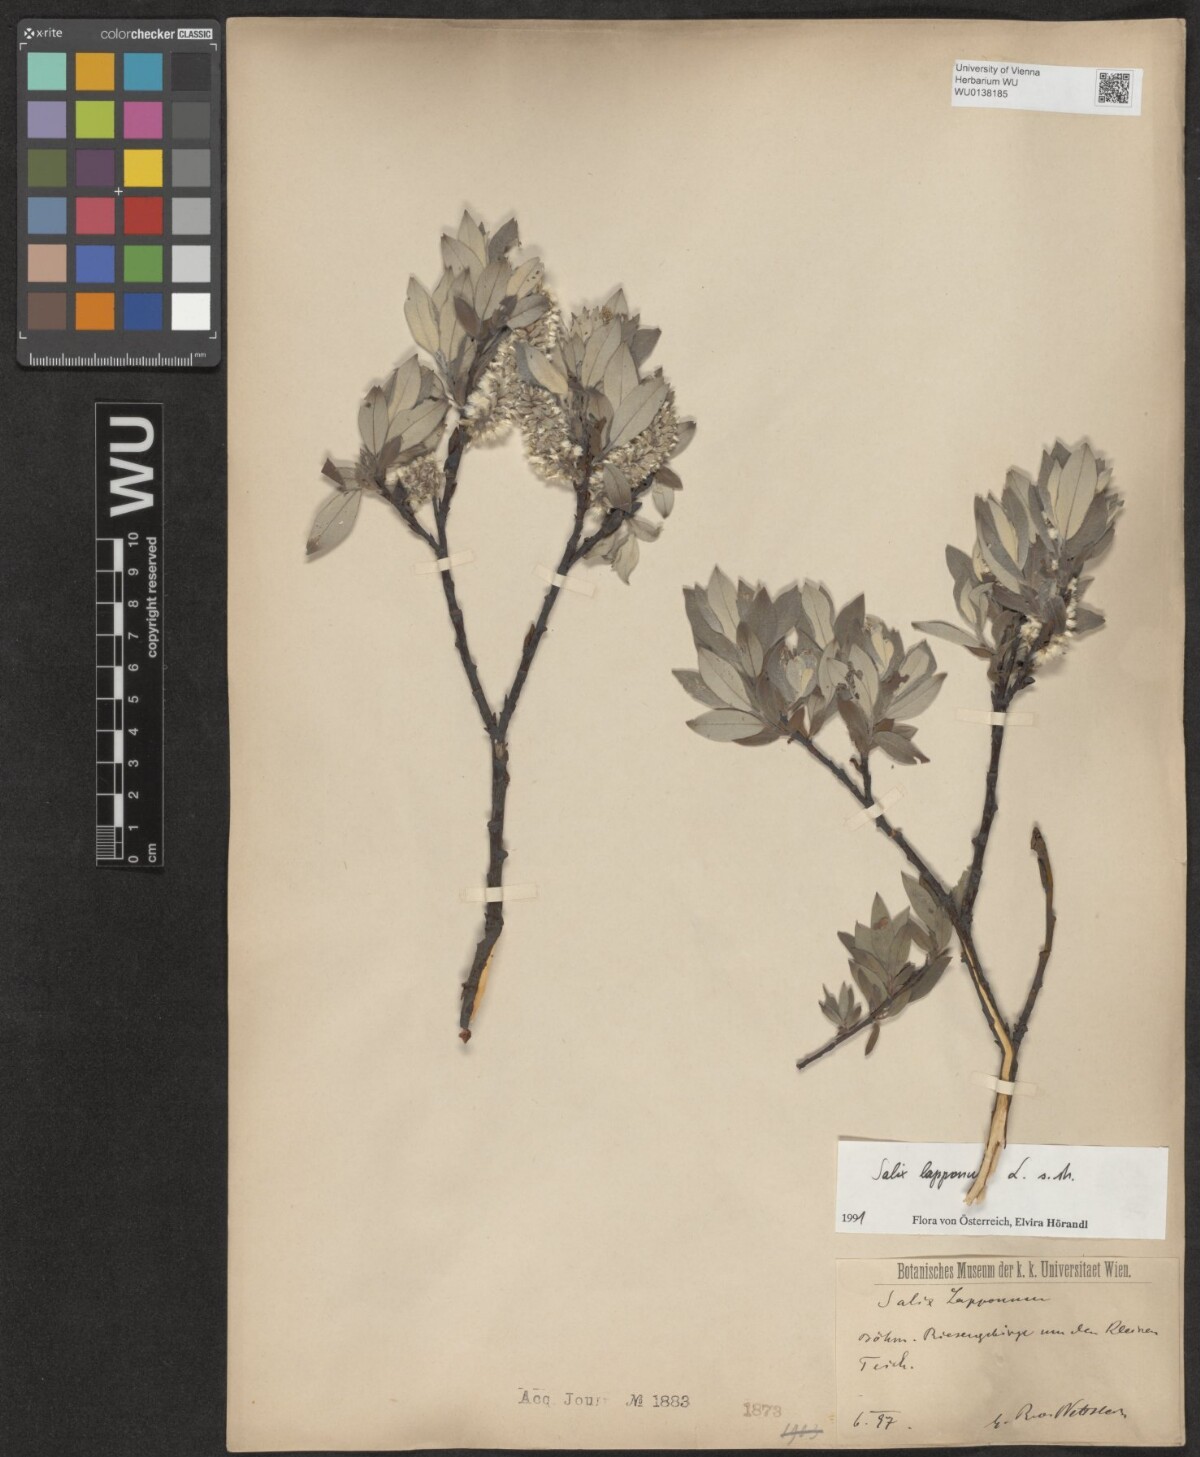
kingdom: Plantae
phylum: Tracheophyta
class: Magnoliopsida
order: Malpighiales
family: Salicaceae
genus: Salix
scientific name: Salix lapponum
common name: Downy willow
